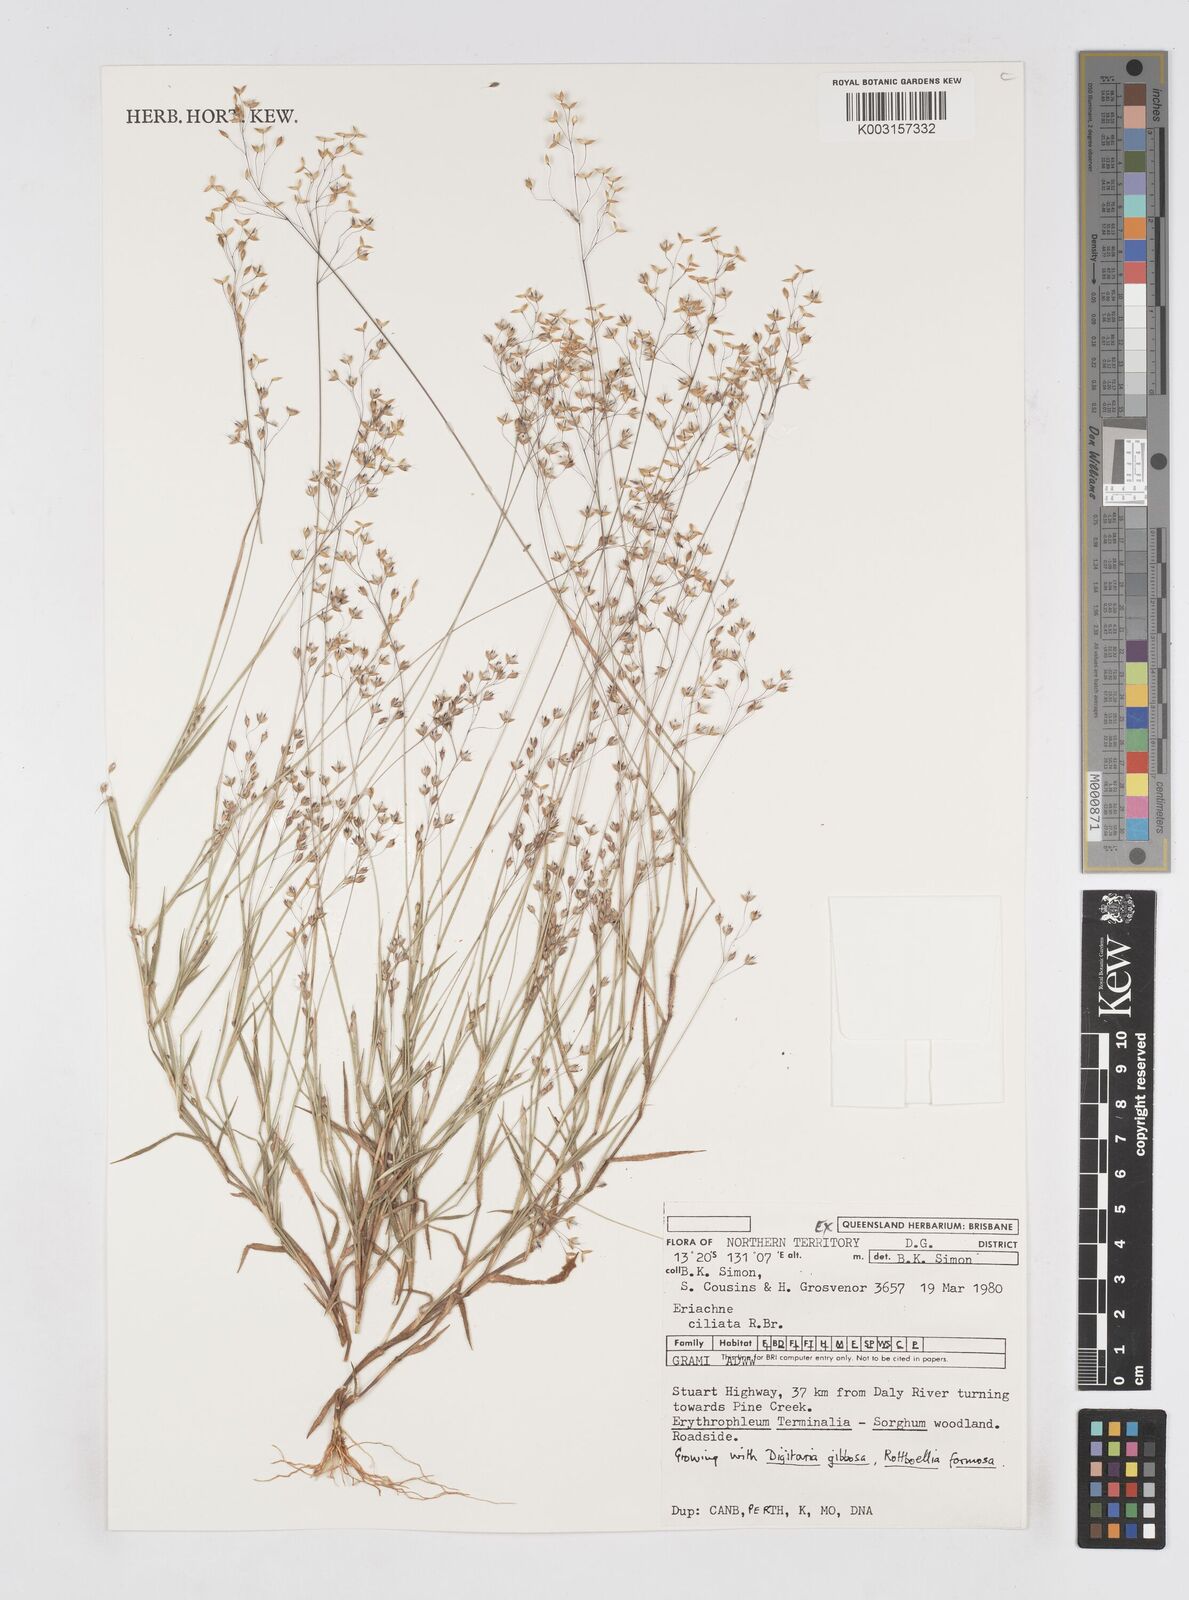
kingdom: Plantae
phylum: Tracheophyta
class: Liliopsida
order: Poales
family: Poaceae
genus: Eriachne
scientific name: Eriachne ciliata
